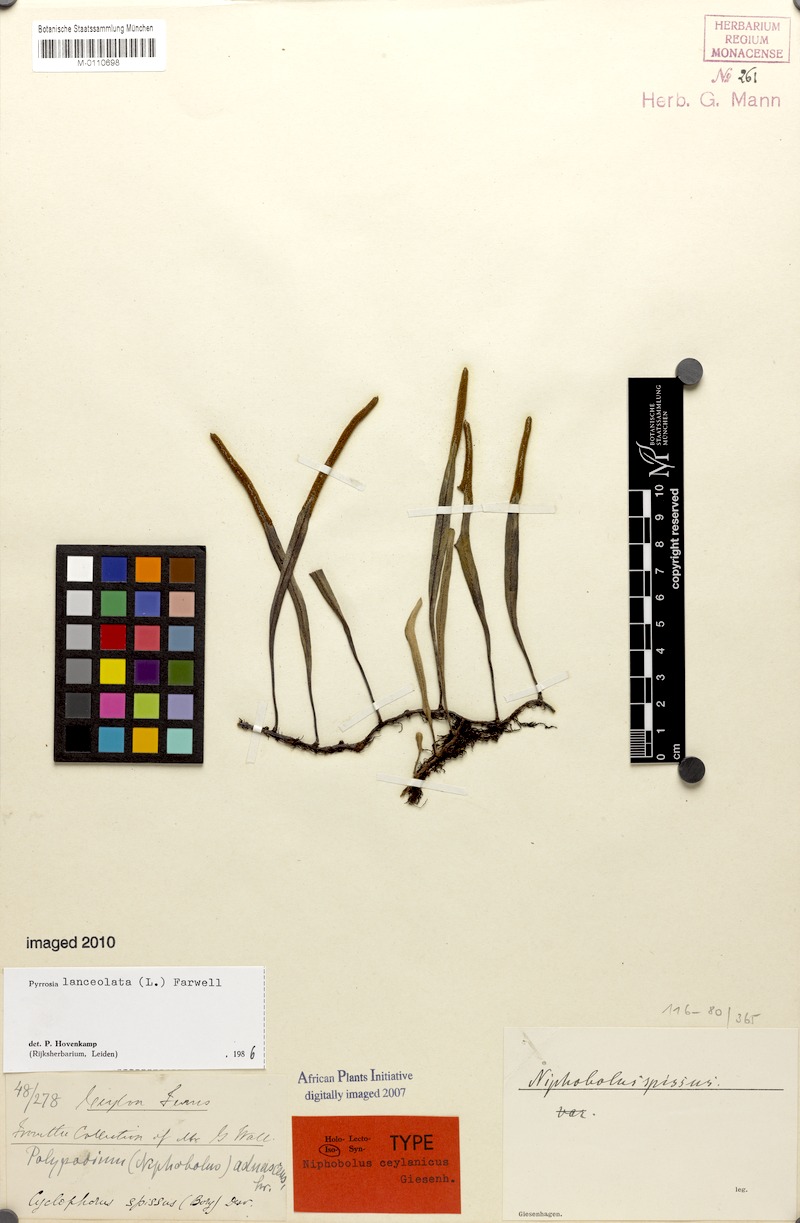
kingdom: Plantae
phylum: Tracheophyta
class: Polypodiopsida
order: Polypodiales
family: Polypodiaceae
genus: Pyrrosia
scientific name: Pyrrosia lanceolata
